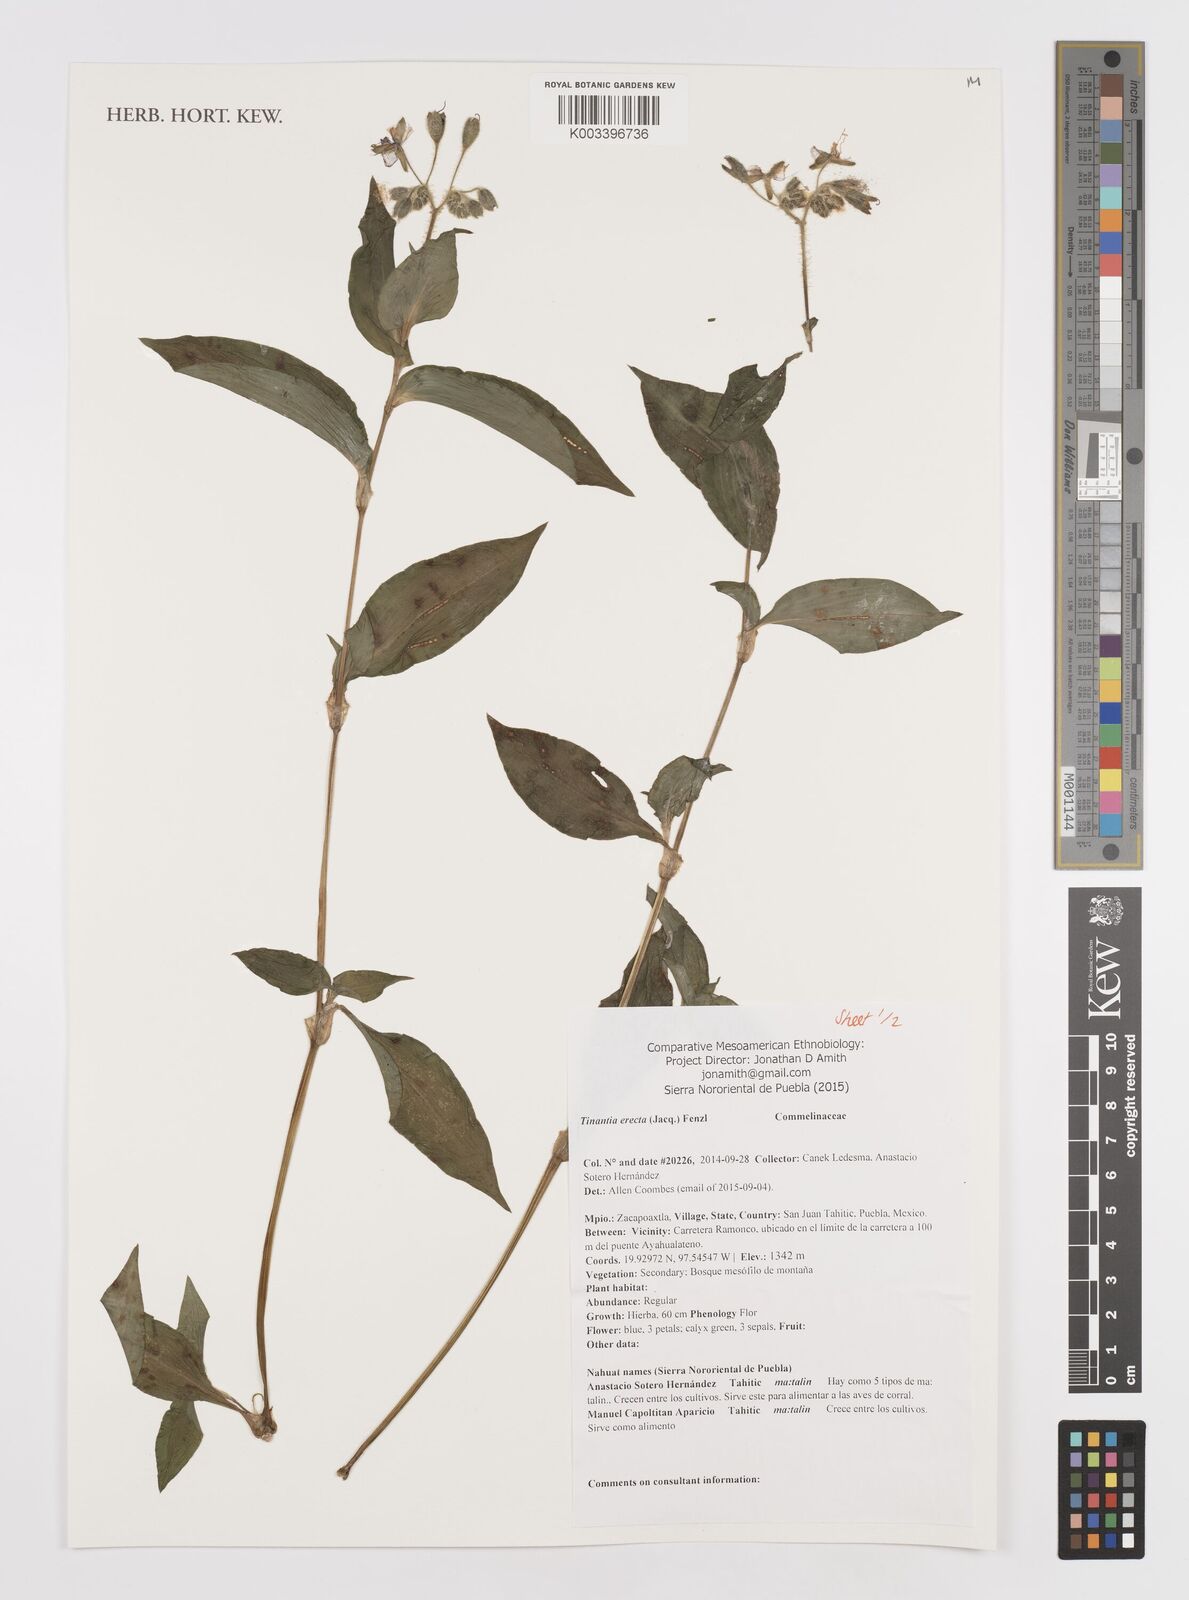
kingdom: Plantae
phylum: Tracheophyta
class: Liliopsida
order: Commelinales
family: Commelinaceae
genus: Tinantia
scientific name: Tinantia erecta
